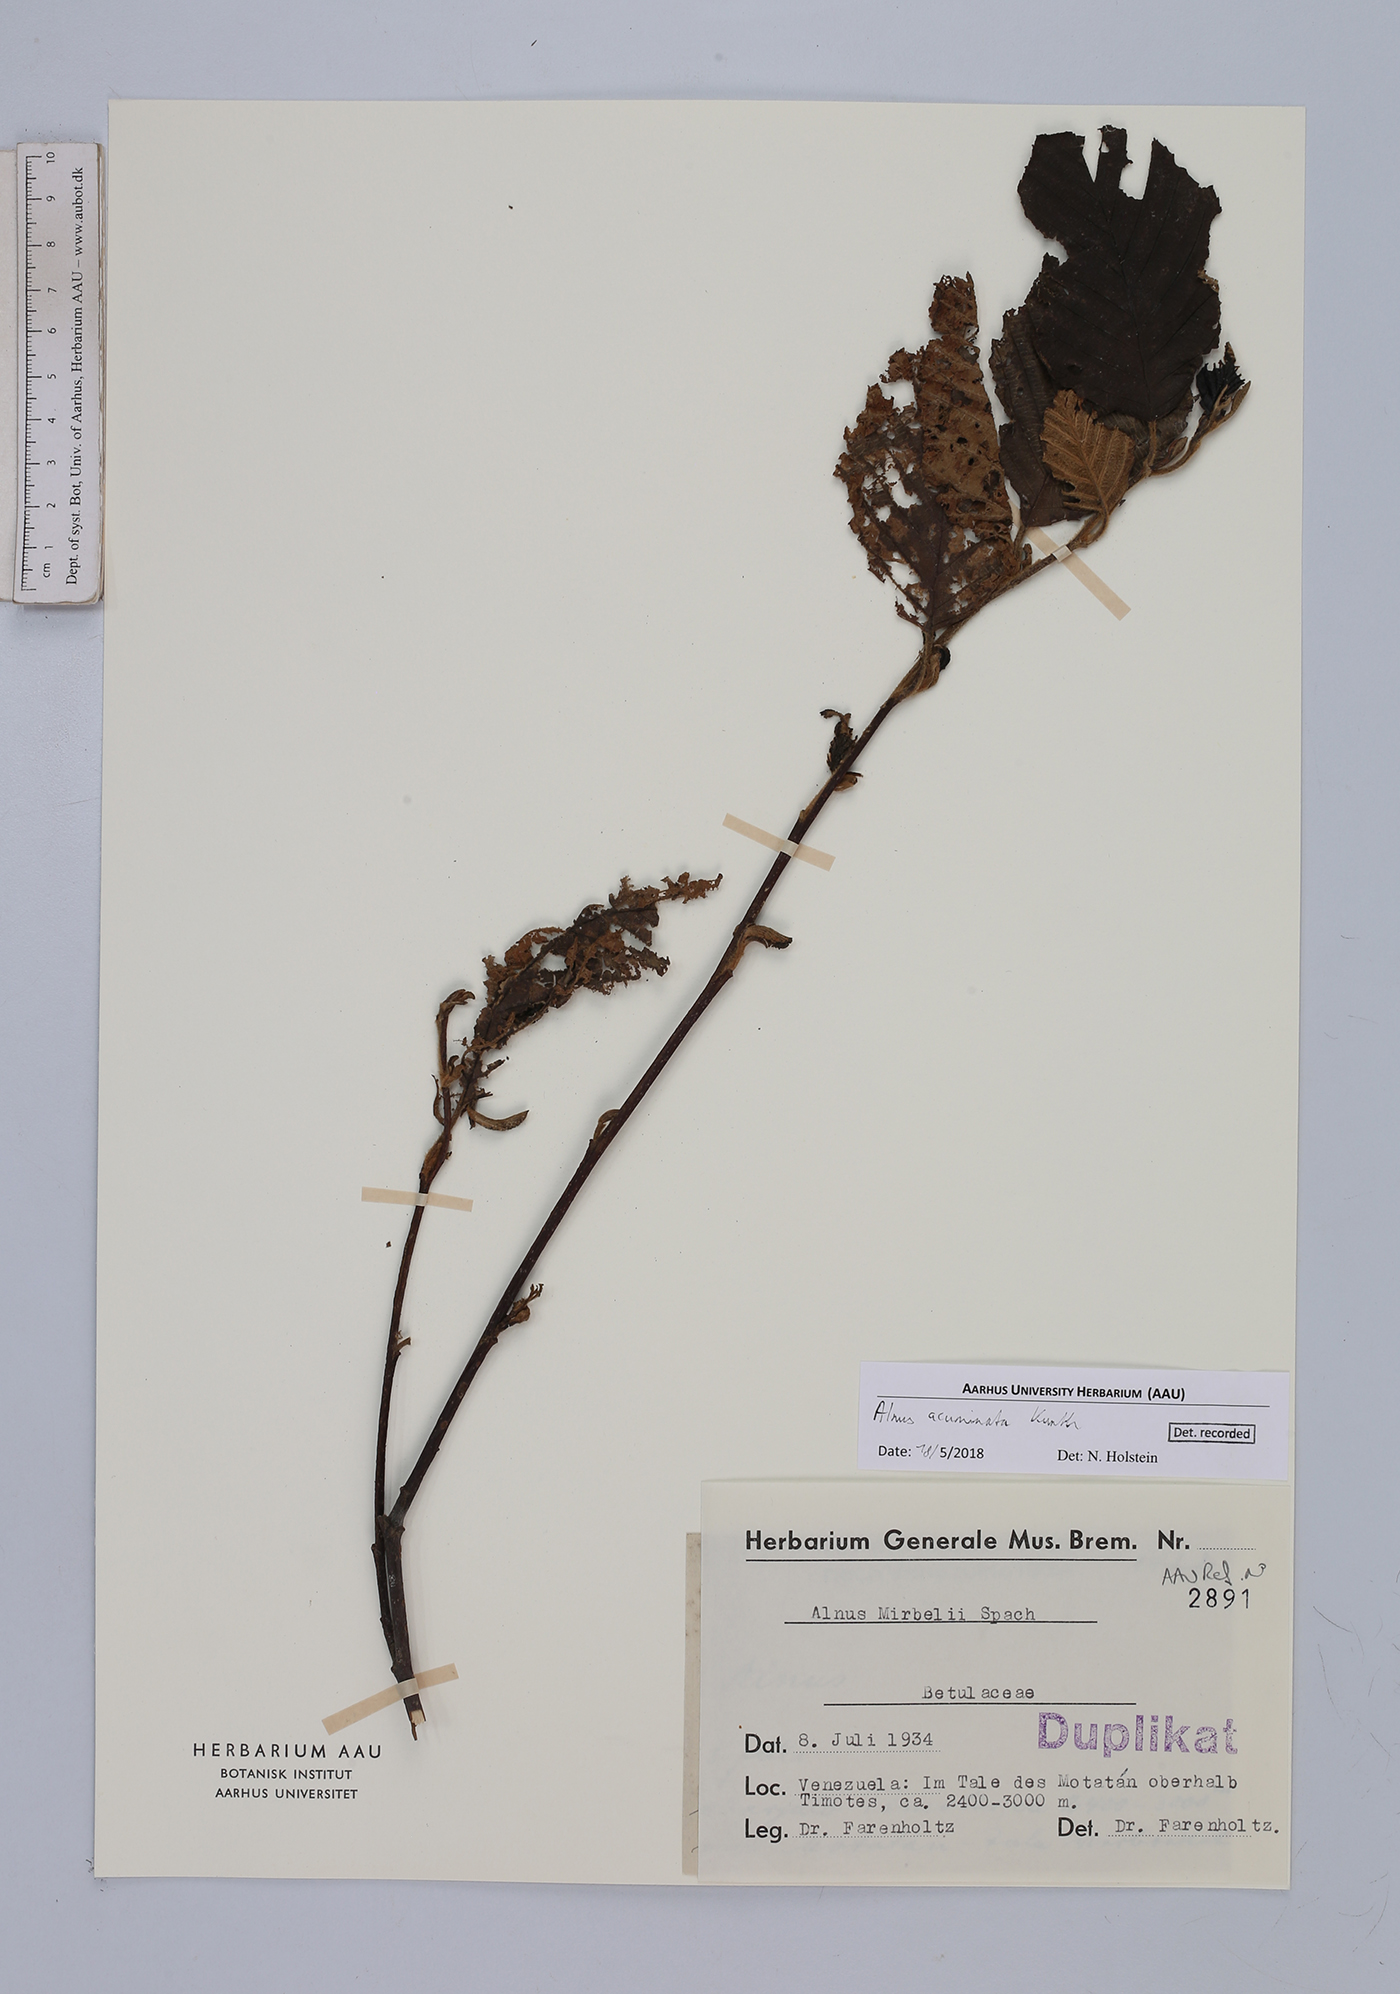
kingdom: Plantae
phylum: Tracheophyta
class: Magnoliopsida
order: Fagales
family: Betulaceae
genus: Alnus
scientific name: Alnus acuminata
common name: Alder
